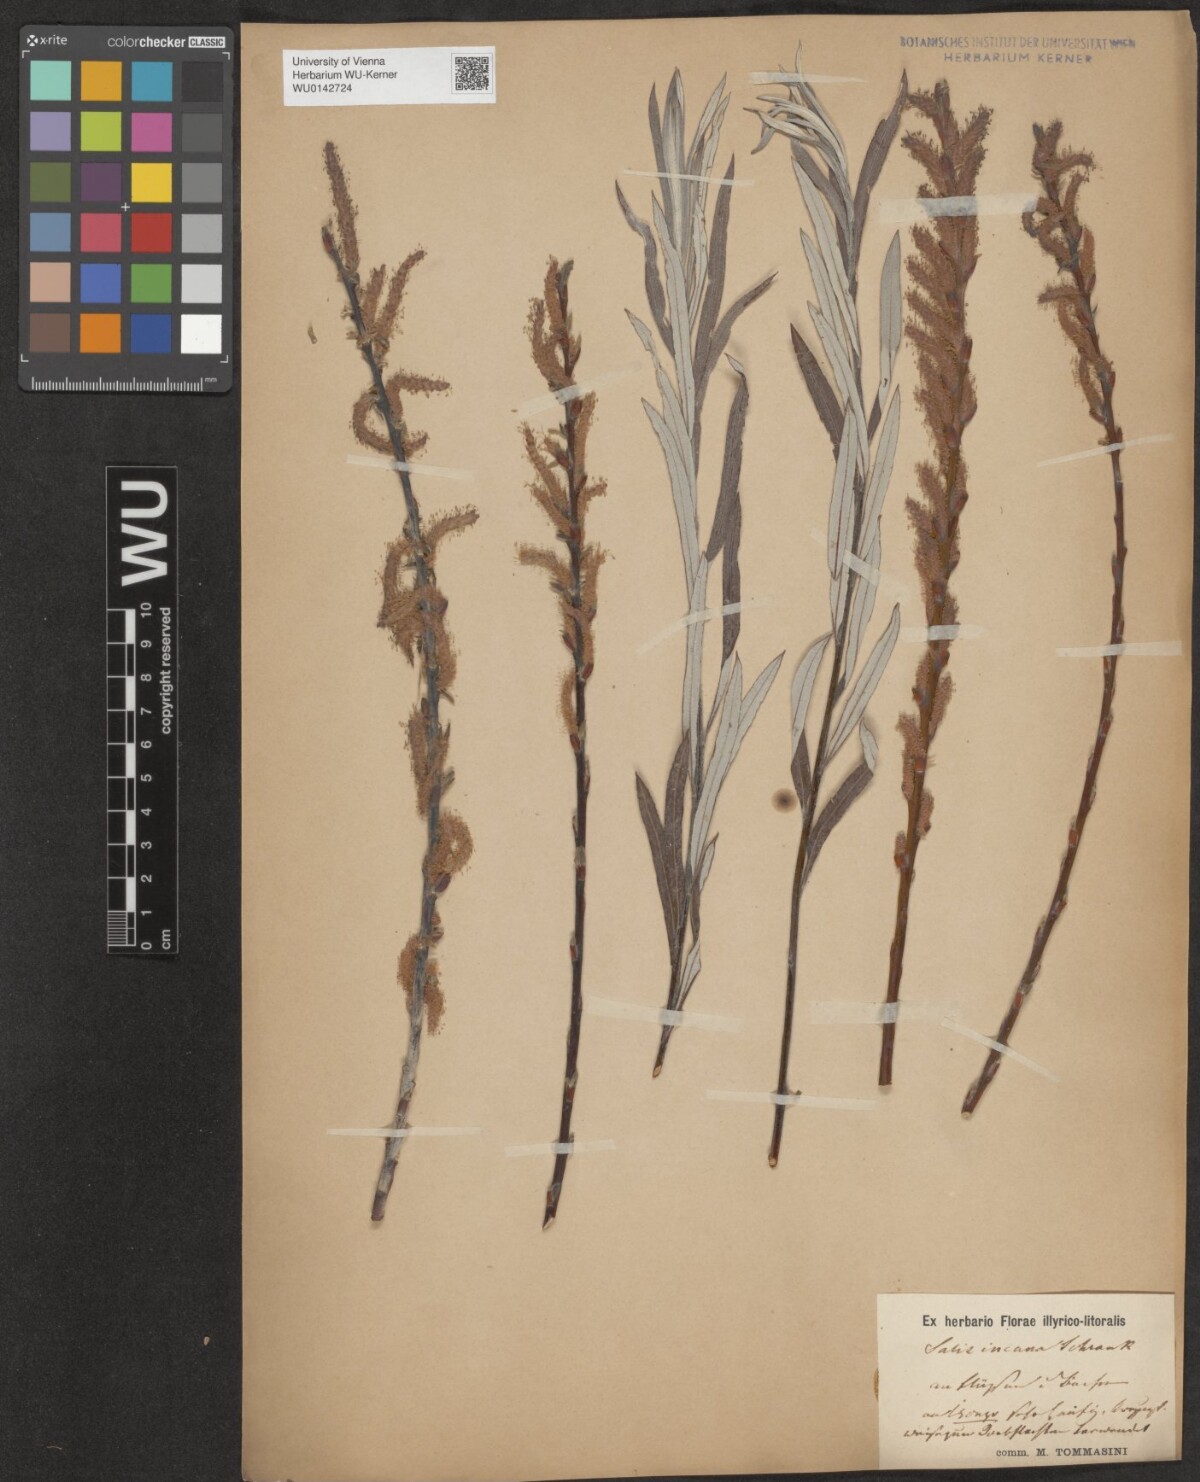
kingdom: Plantae
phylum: Tracheophyta
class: Magnoliopsida
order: Malpighiales
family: Salicaceae
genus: Salix
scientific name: Salix eleagnos
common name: Elaeagnus willow
